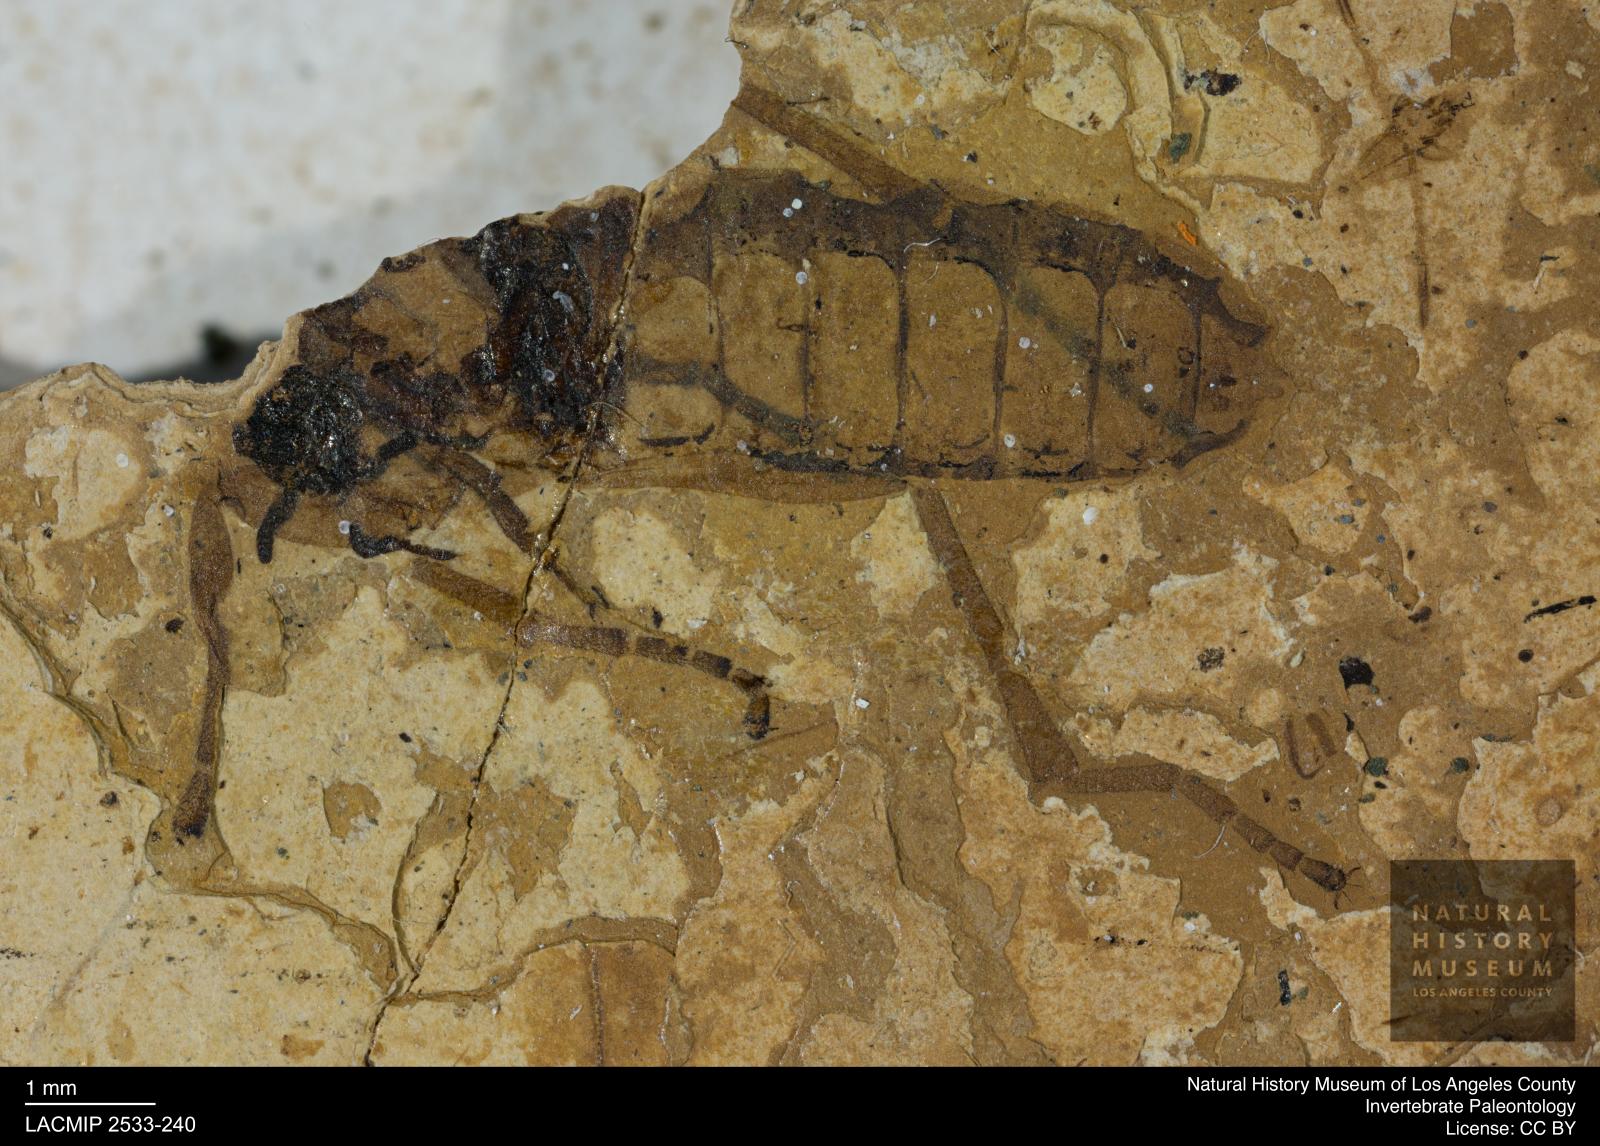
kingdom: Animalia
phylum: Arthropoda
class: Insecta
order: Diptera
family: Bibionidae
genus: Bibio
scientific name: Bibio rottensis
